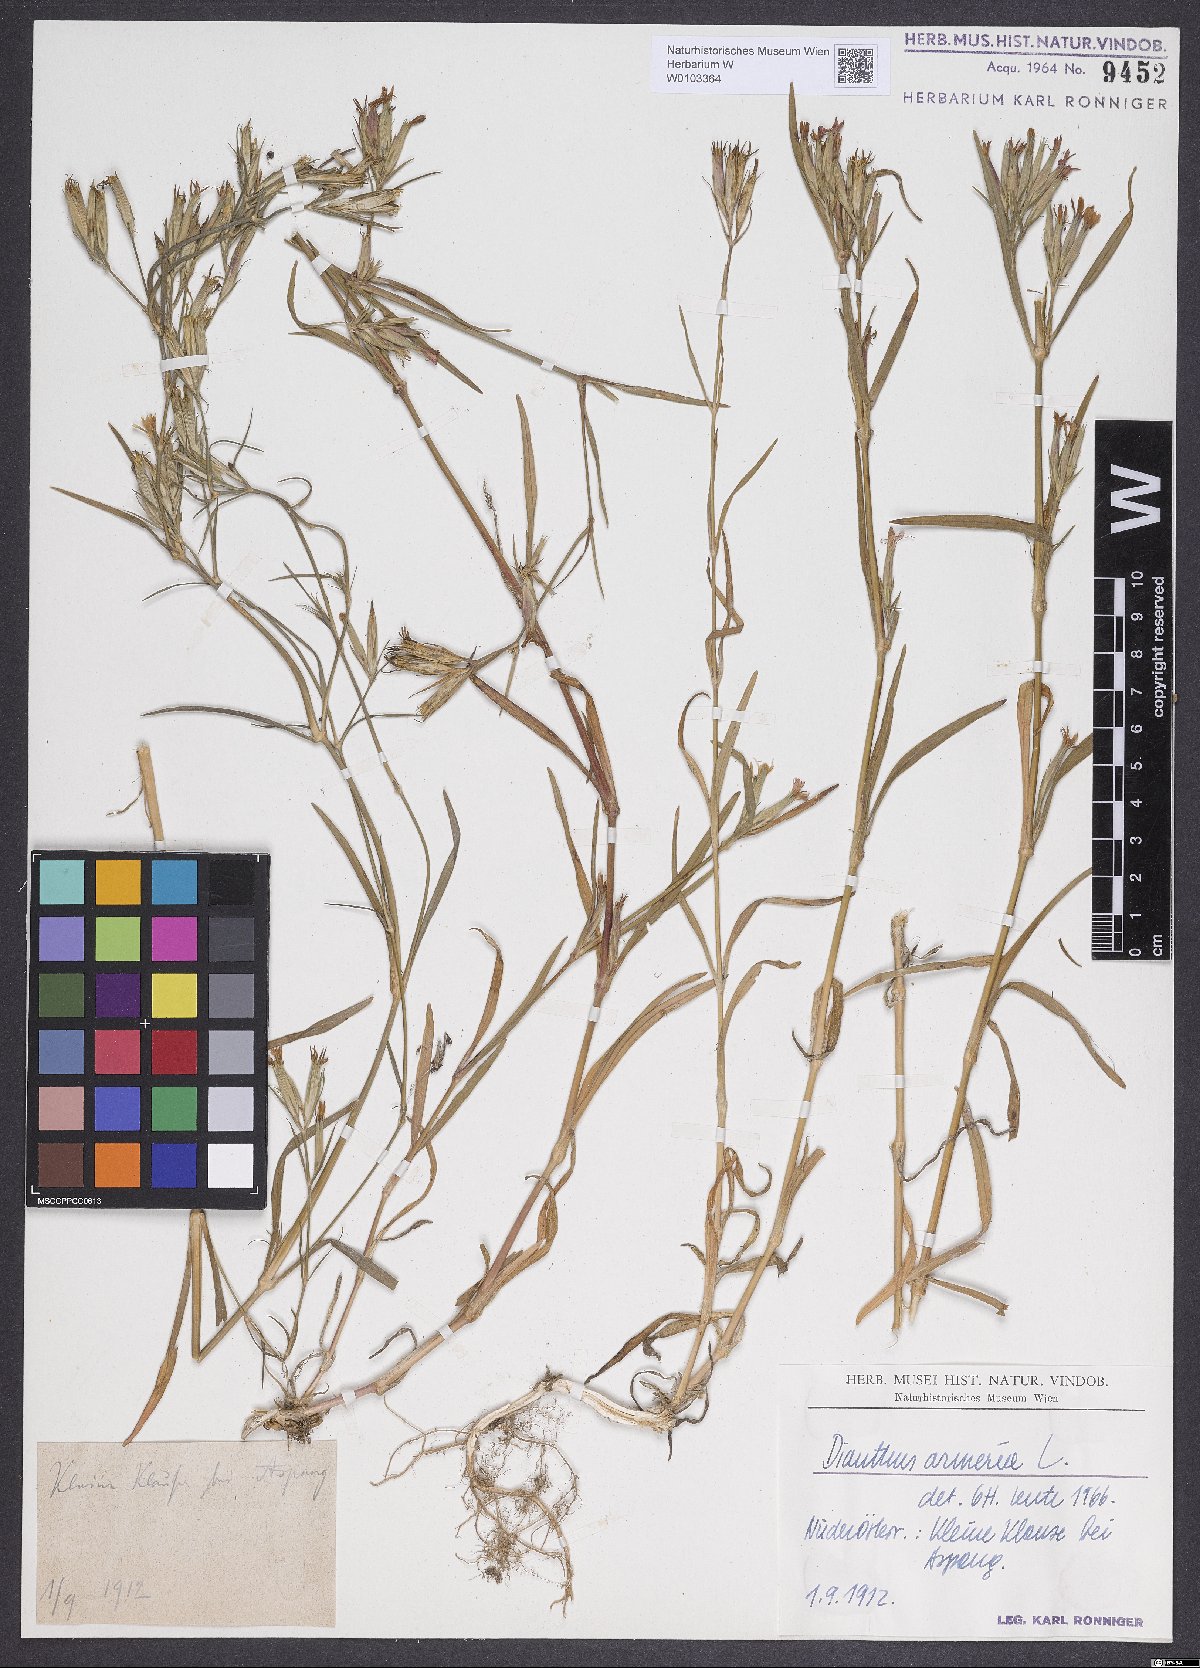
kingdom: Plantae
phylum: Tracheophyta
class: Magnoliopsida
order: Caryophyllales
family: Caryophyllaceae
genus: Dianthus
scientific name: Dianthus armeria
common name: Deptford pink
